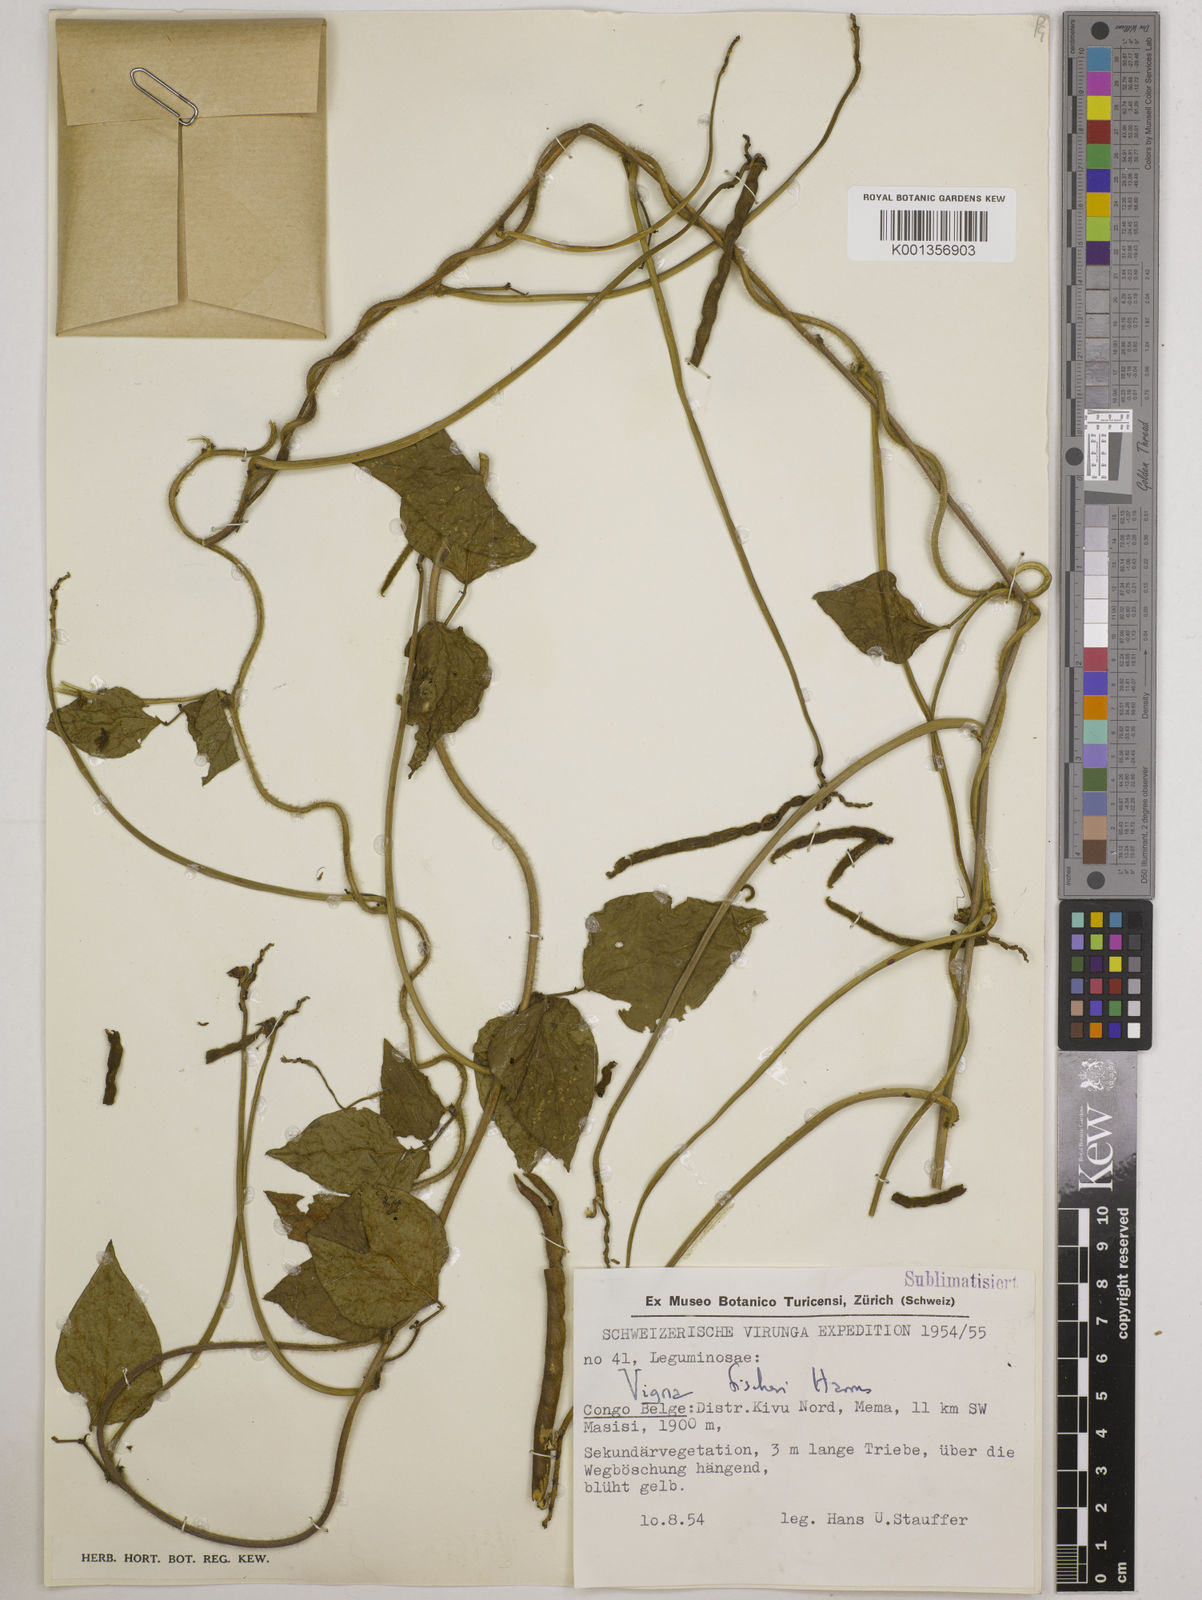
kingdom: Plantae
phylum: Tracheophyta
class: Magnoliopsida
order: Fabales
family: Fabaceae
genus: Vigna
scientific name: Vigna fischeri
